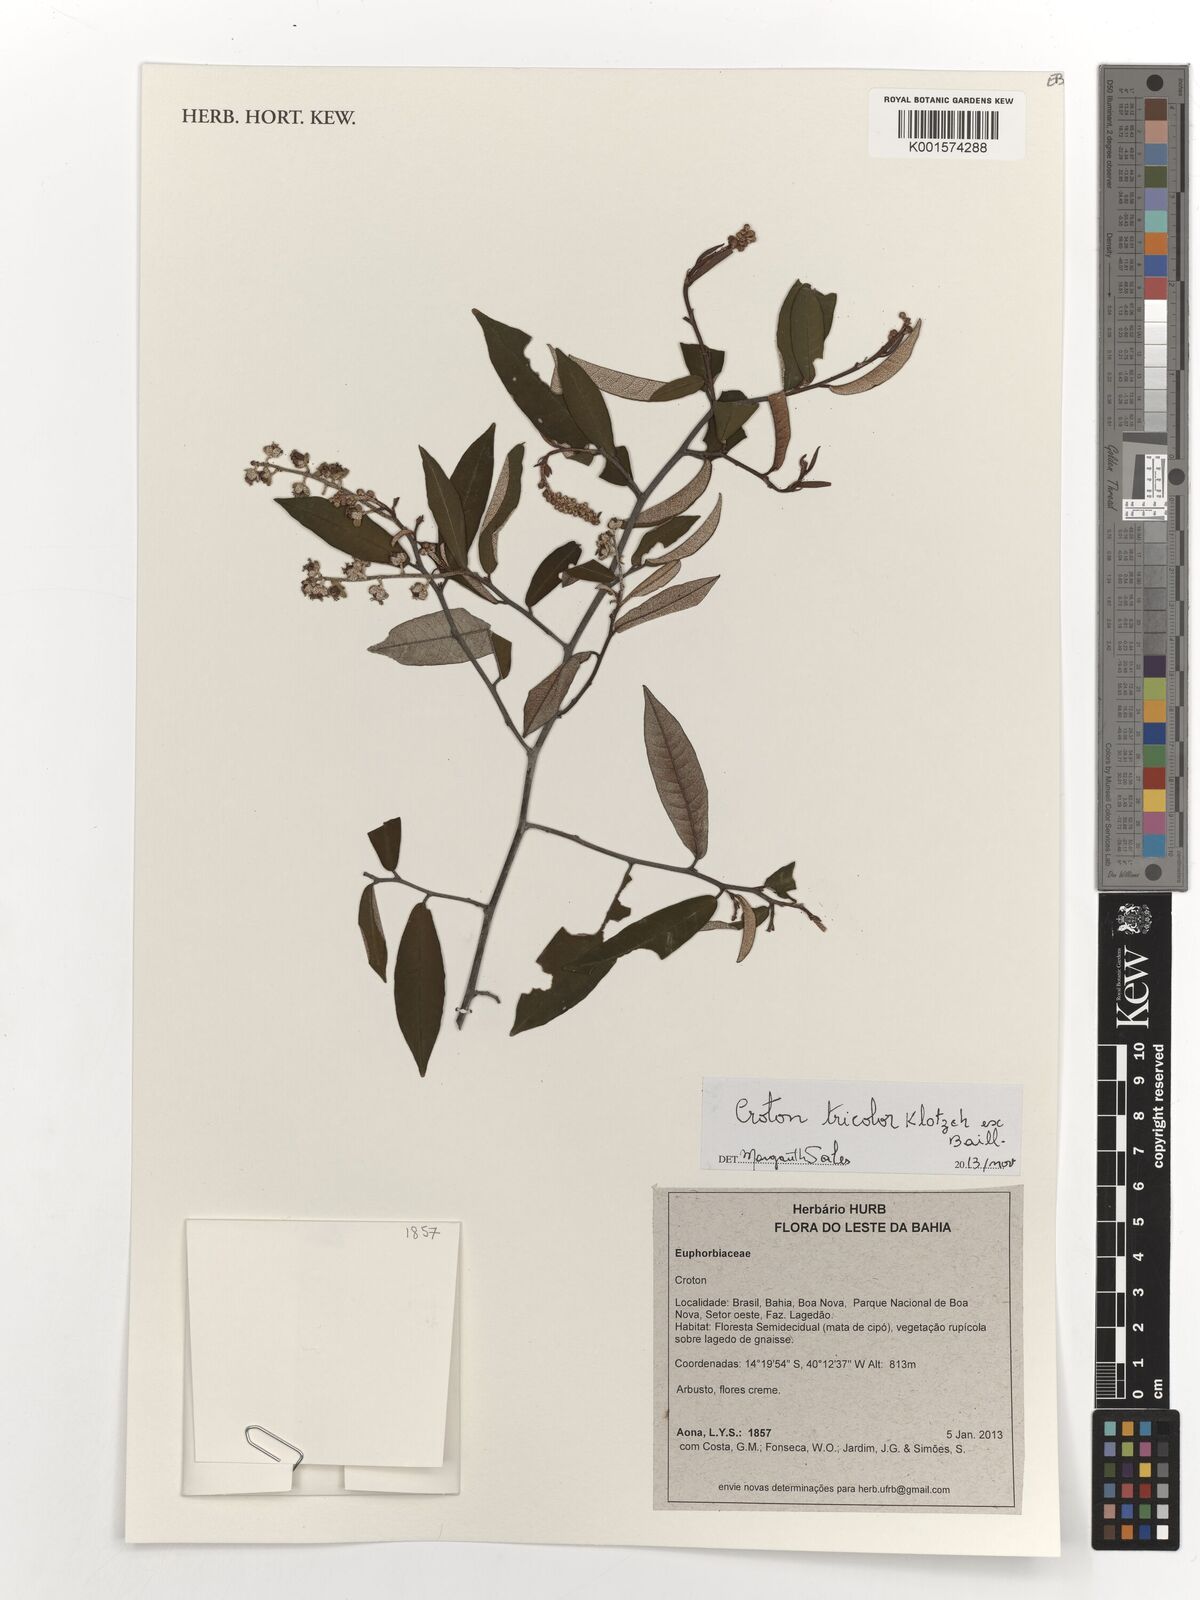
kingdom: Plantae
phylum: Tracheophyta
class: Magnoliopsida
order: Malpighiales
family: Euphorbiaceae
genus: Croton
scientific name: Croton tricolor
